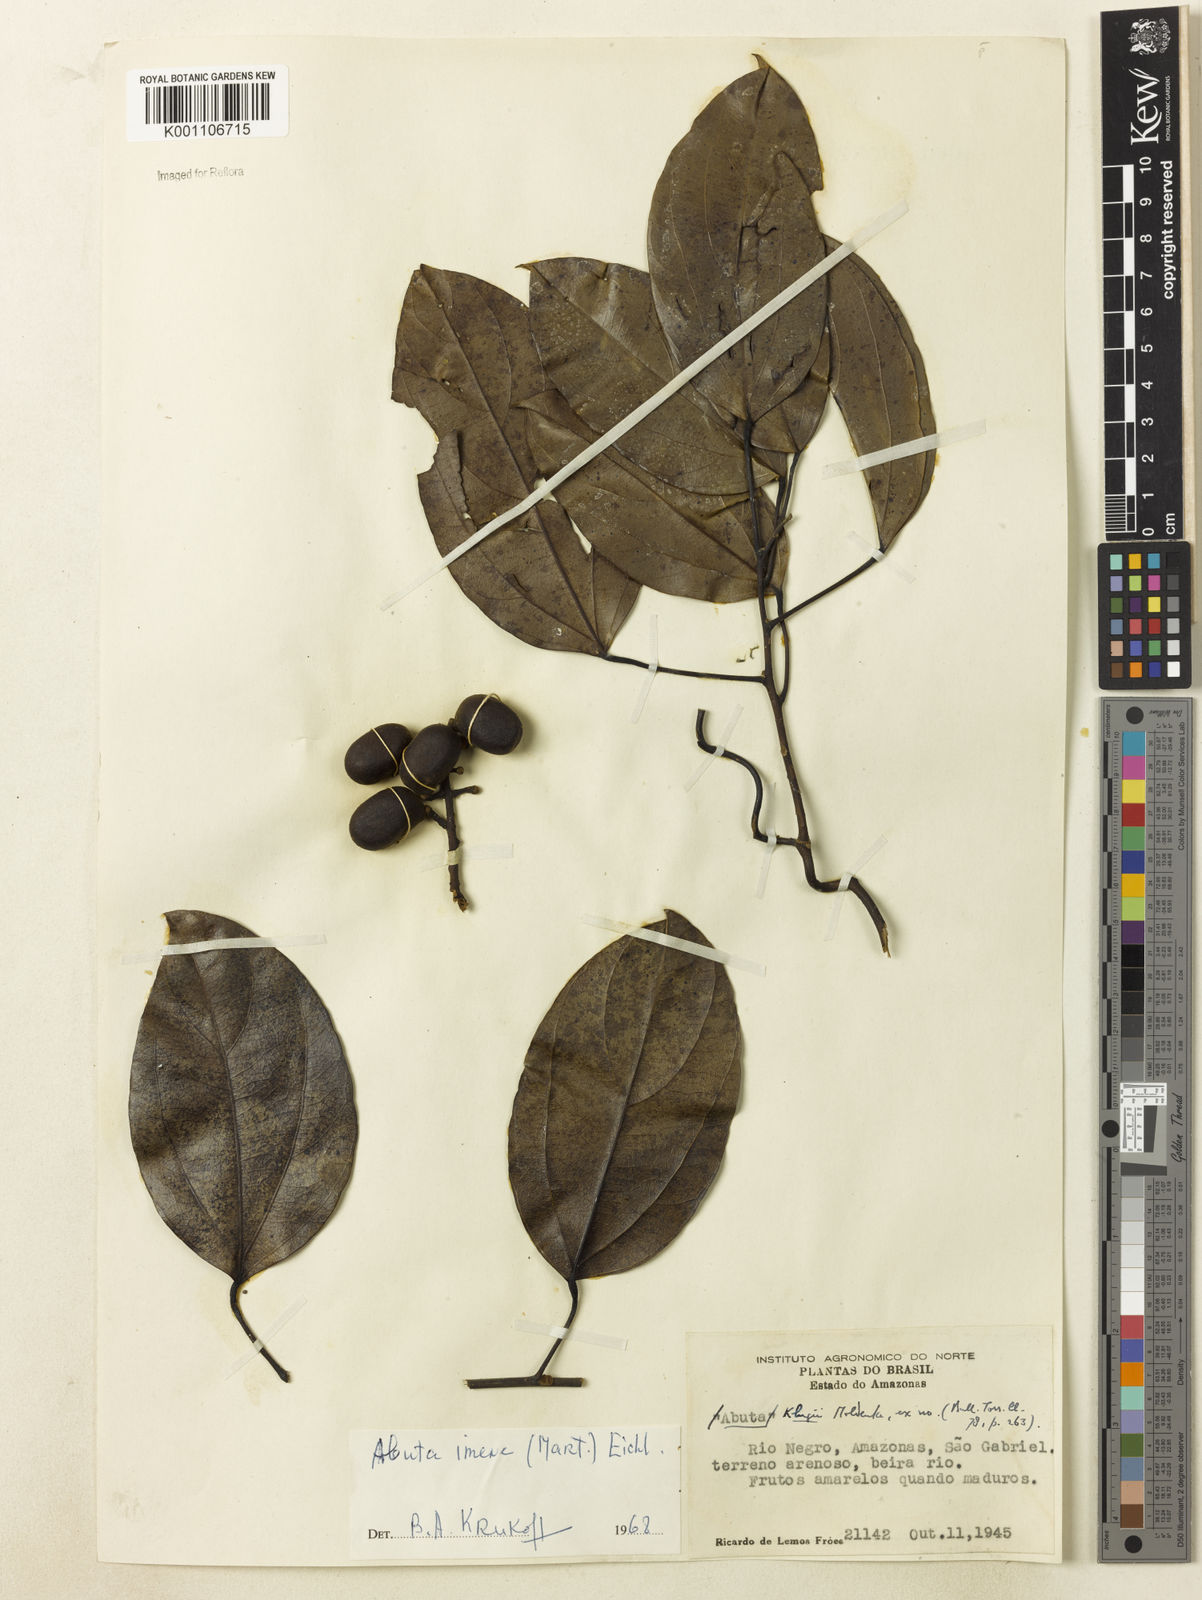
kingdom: Plantae
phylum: Tracheophyta
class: Magnoliopsida
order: Ranunculales
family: Menispermaceae
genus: Abuta
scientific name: Abuta imene
